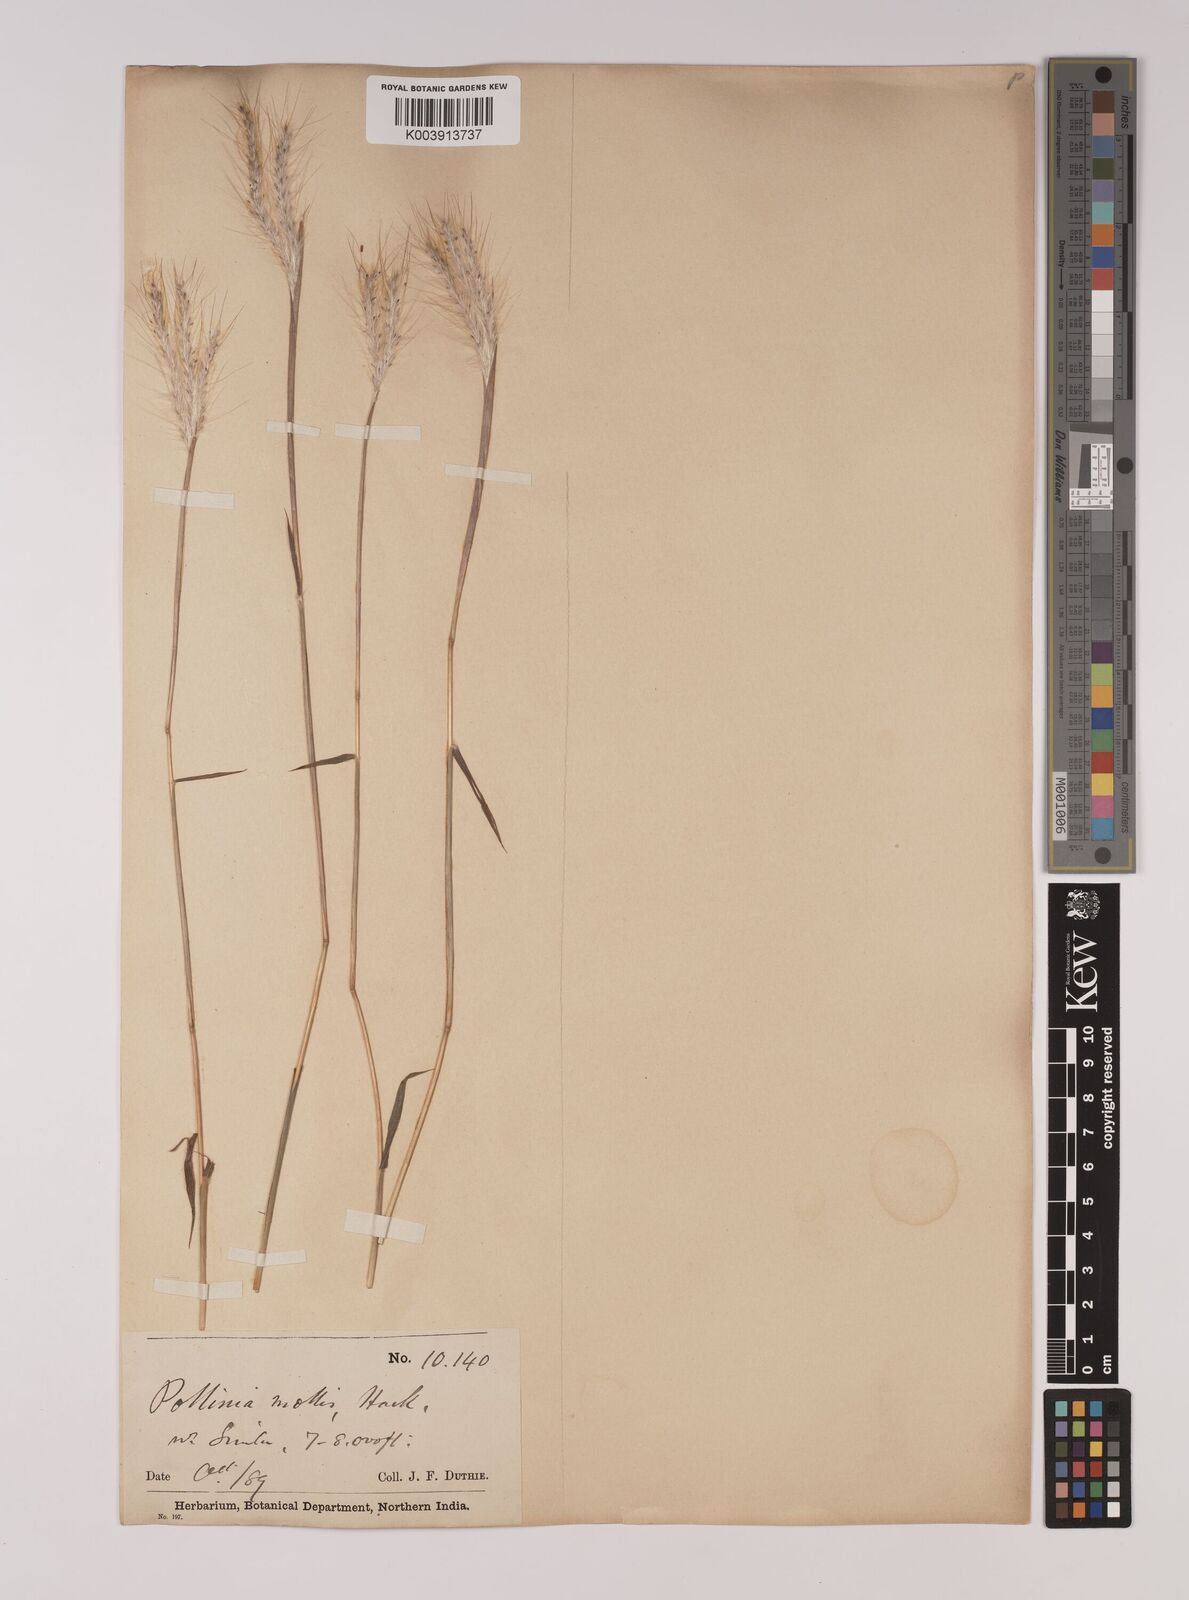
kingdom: Plantae
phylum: Tracheophyta
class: Liliopsida
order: Poales
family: Poaceae
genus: Eulalia
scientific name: Eulalia mollis
